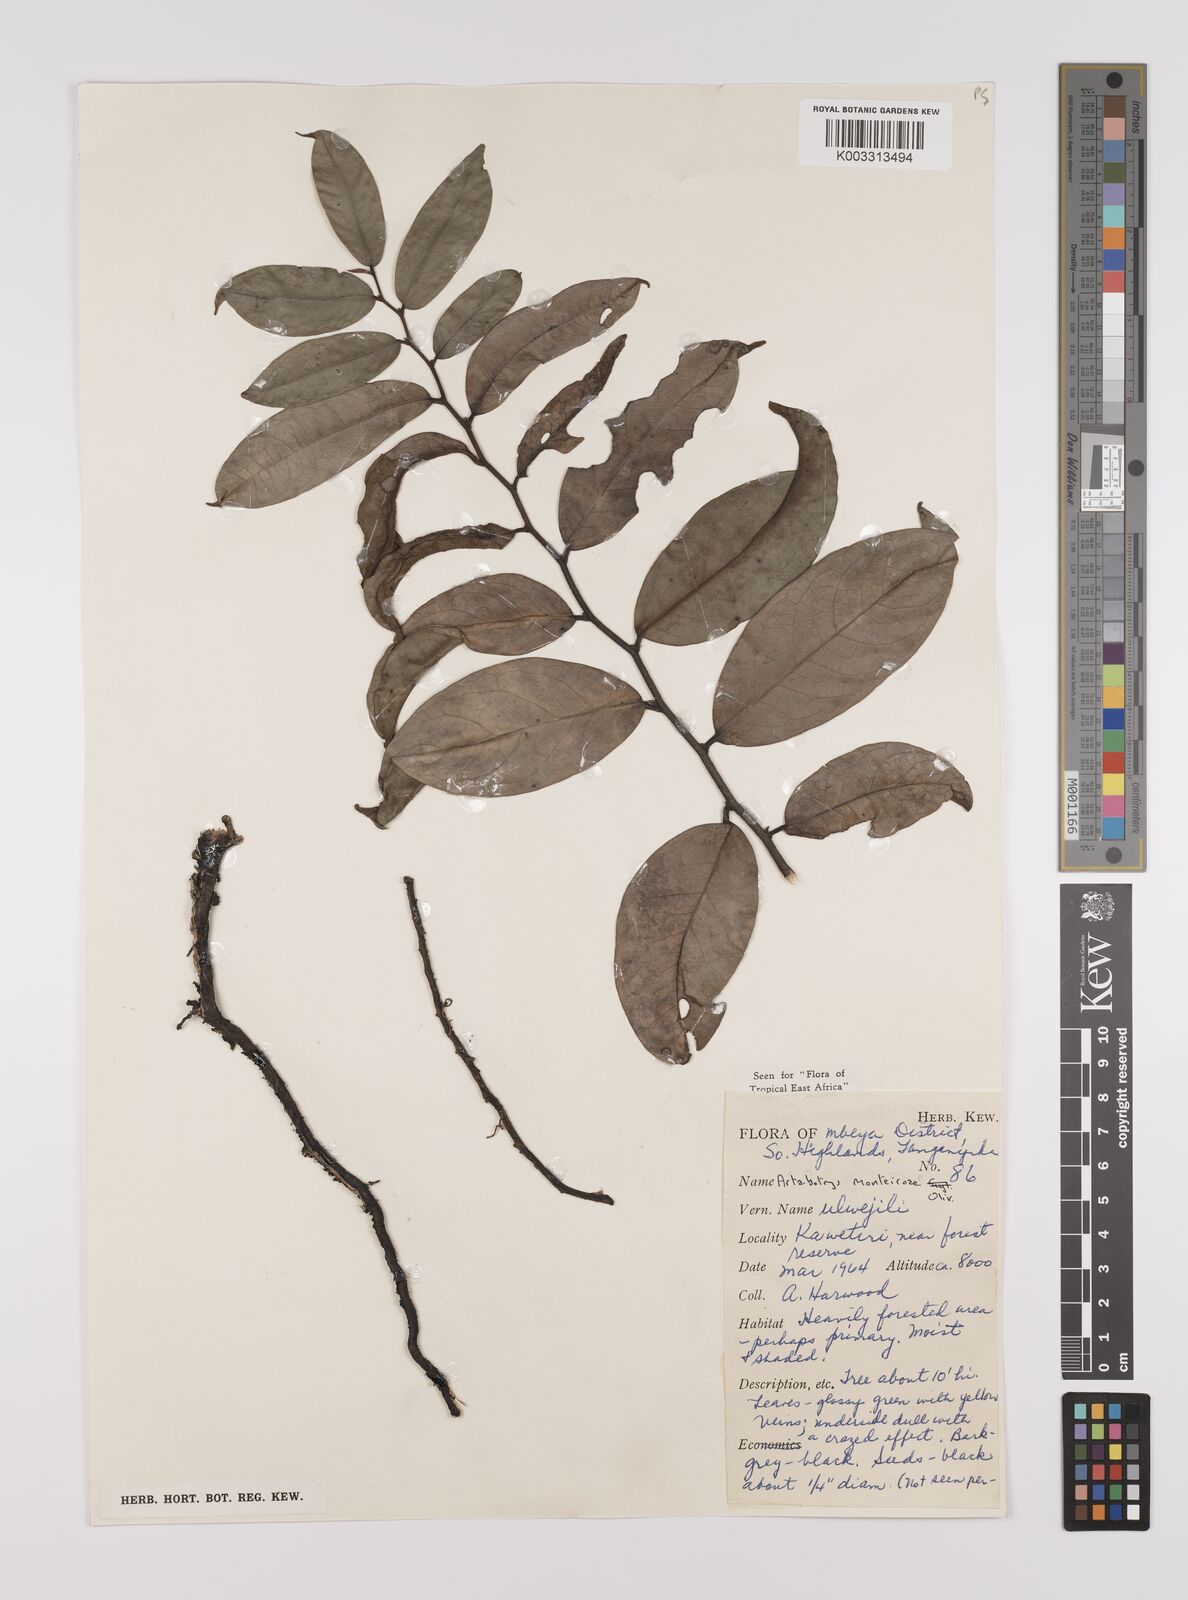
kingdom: Plantae
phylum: Tracheophyta
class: Magnoliopsida
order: Magnoliales
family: Annonaceae
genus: Artabotrys
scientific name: Artabotrys monteiroae
